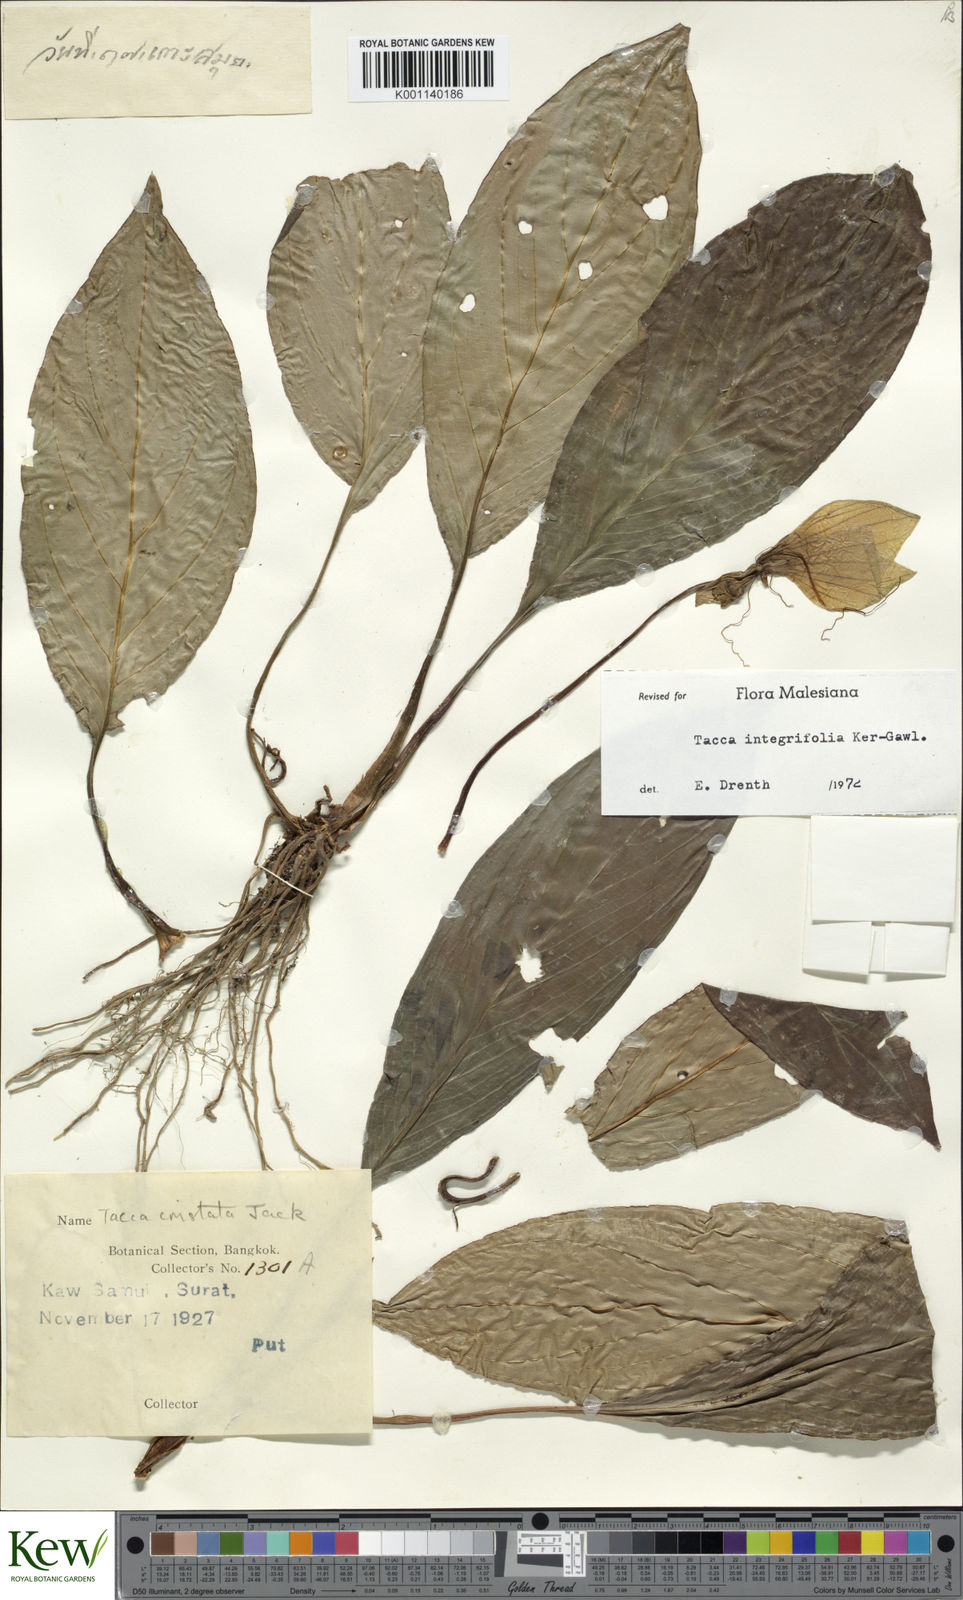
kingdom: Plantae
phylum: Tracheophyta
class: Liliopsida
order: Dioscoreales
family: Dioscoreaceae
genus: Tacca
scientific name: Tacca integrifolia
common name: Batplant
